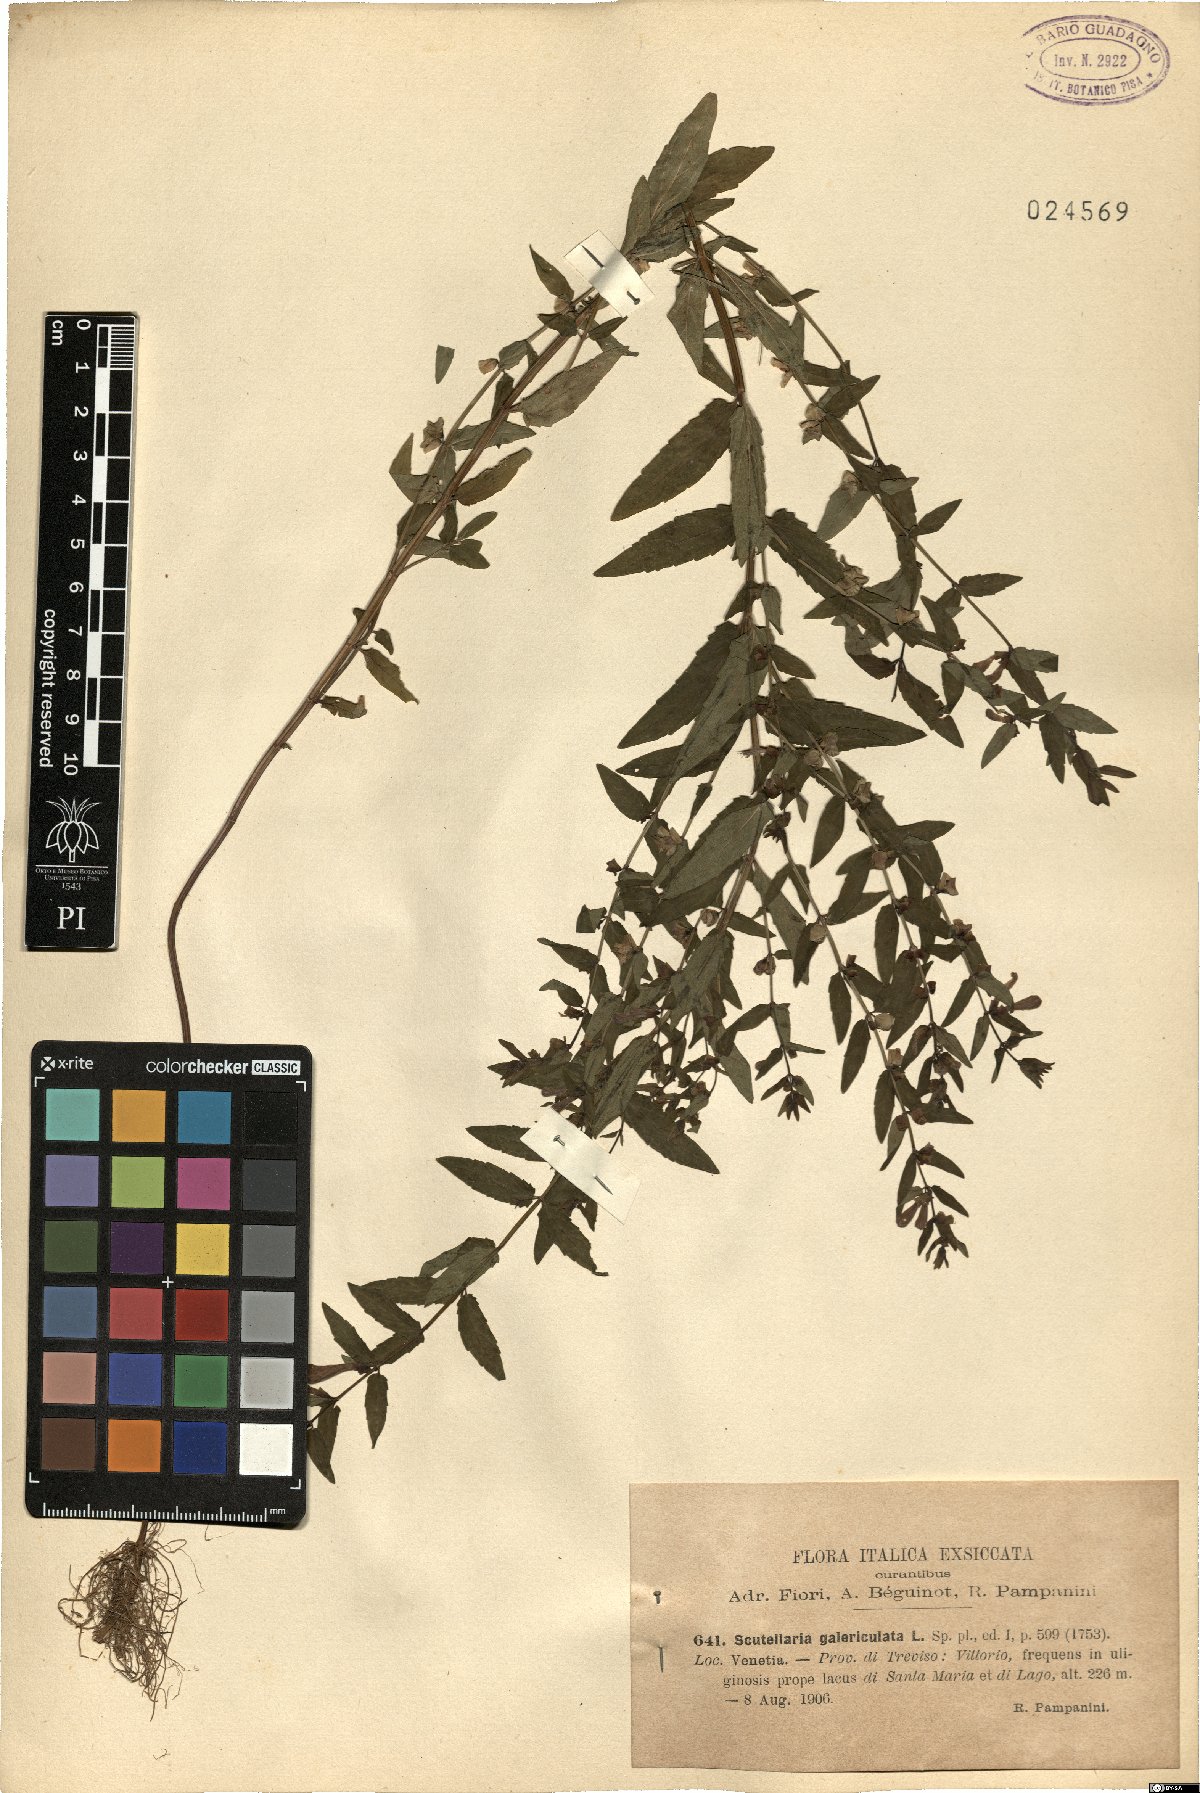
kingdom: Plantae
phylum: Tracheophyta
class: Magnoliopsida
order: Lamiales
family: Lamiaceae
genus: Scutellaria
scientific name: Scutellaria galericulata
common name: Skullcap
